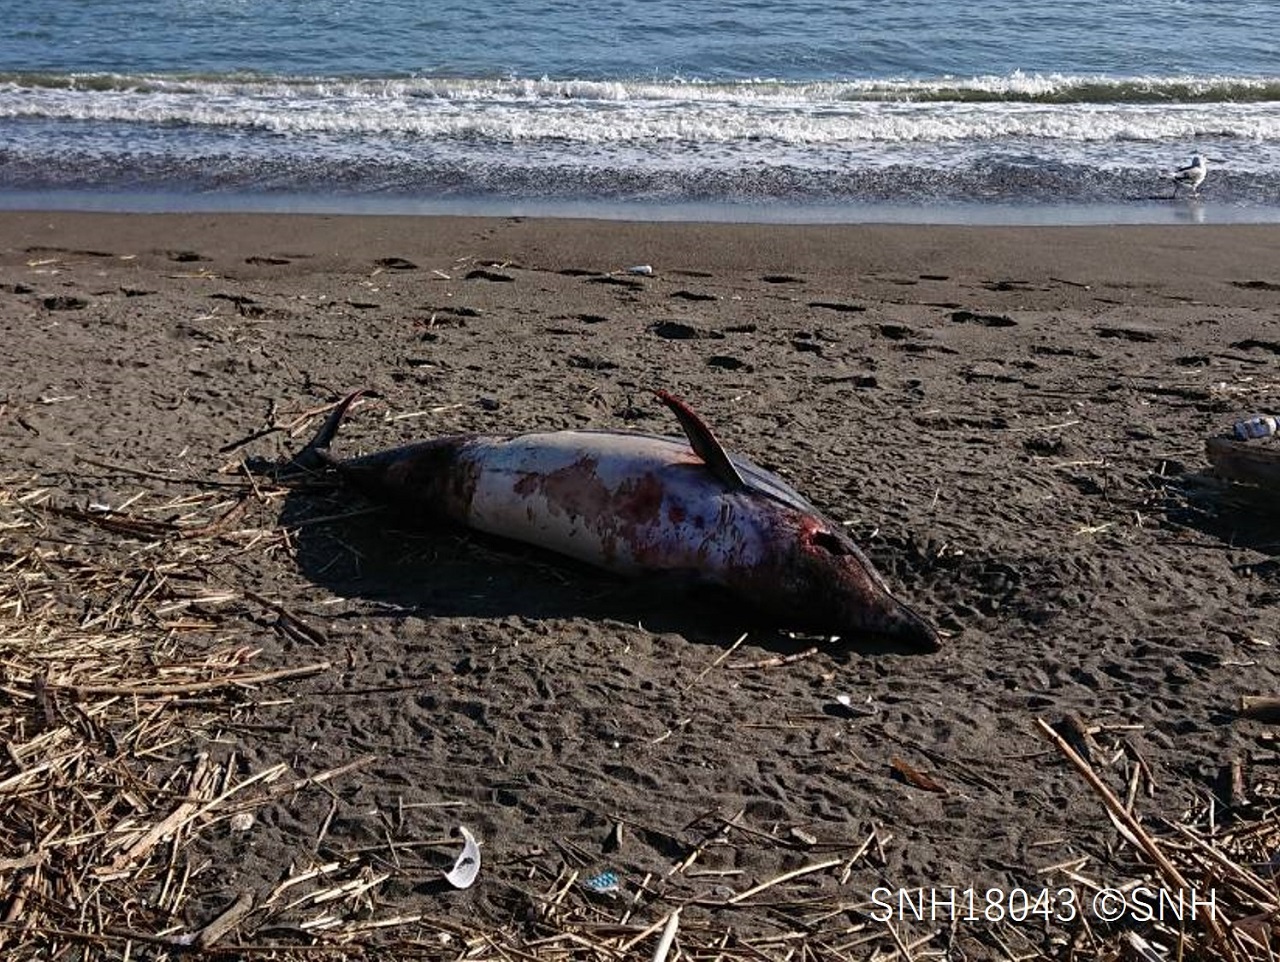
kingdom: Animalia
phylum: Chordata
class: Mammalia
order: Cetacea
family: Delphinidae
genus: Stenella
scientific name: Stenella coeruleoalba
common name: Striped dolphin
